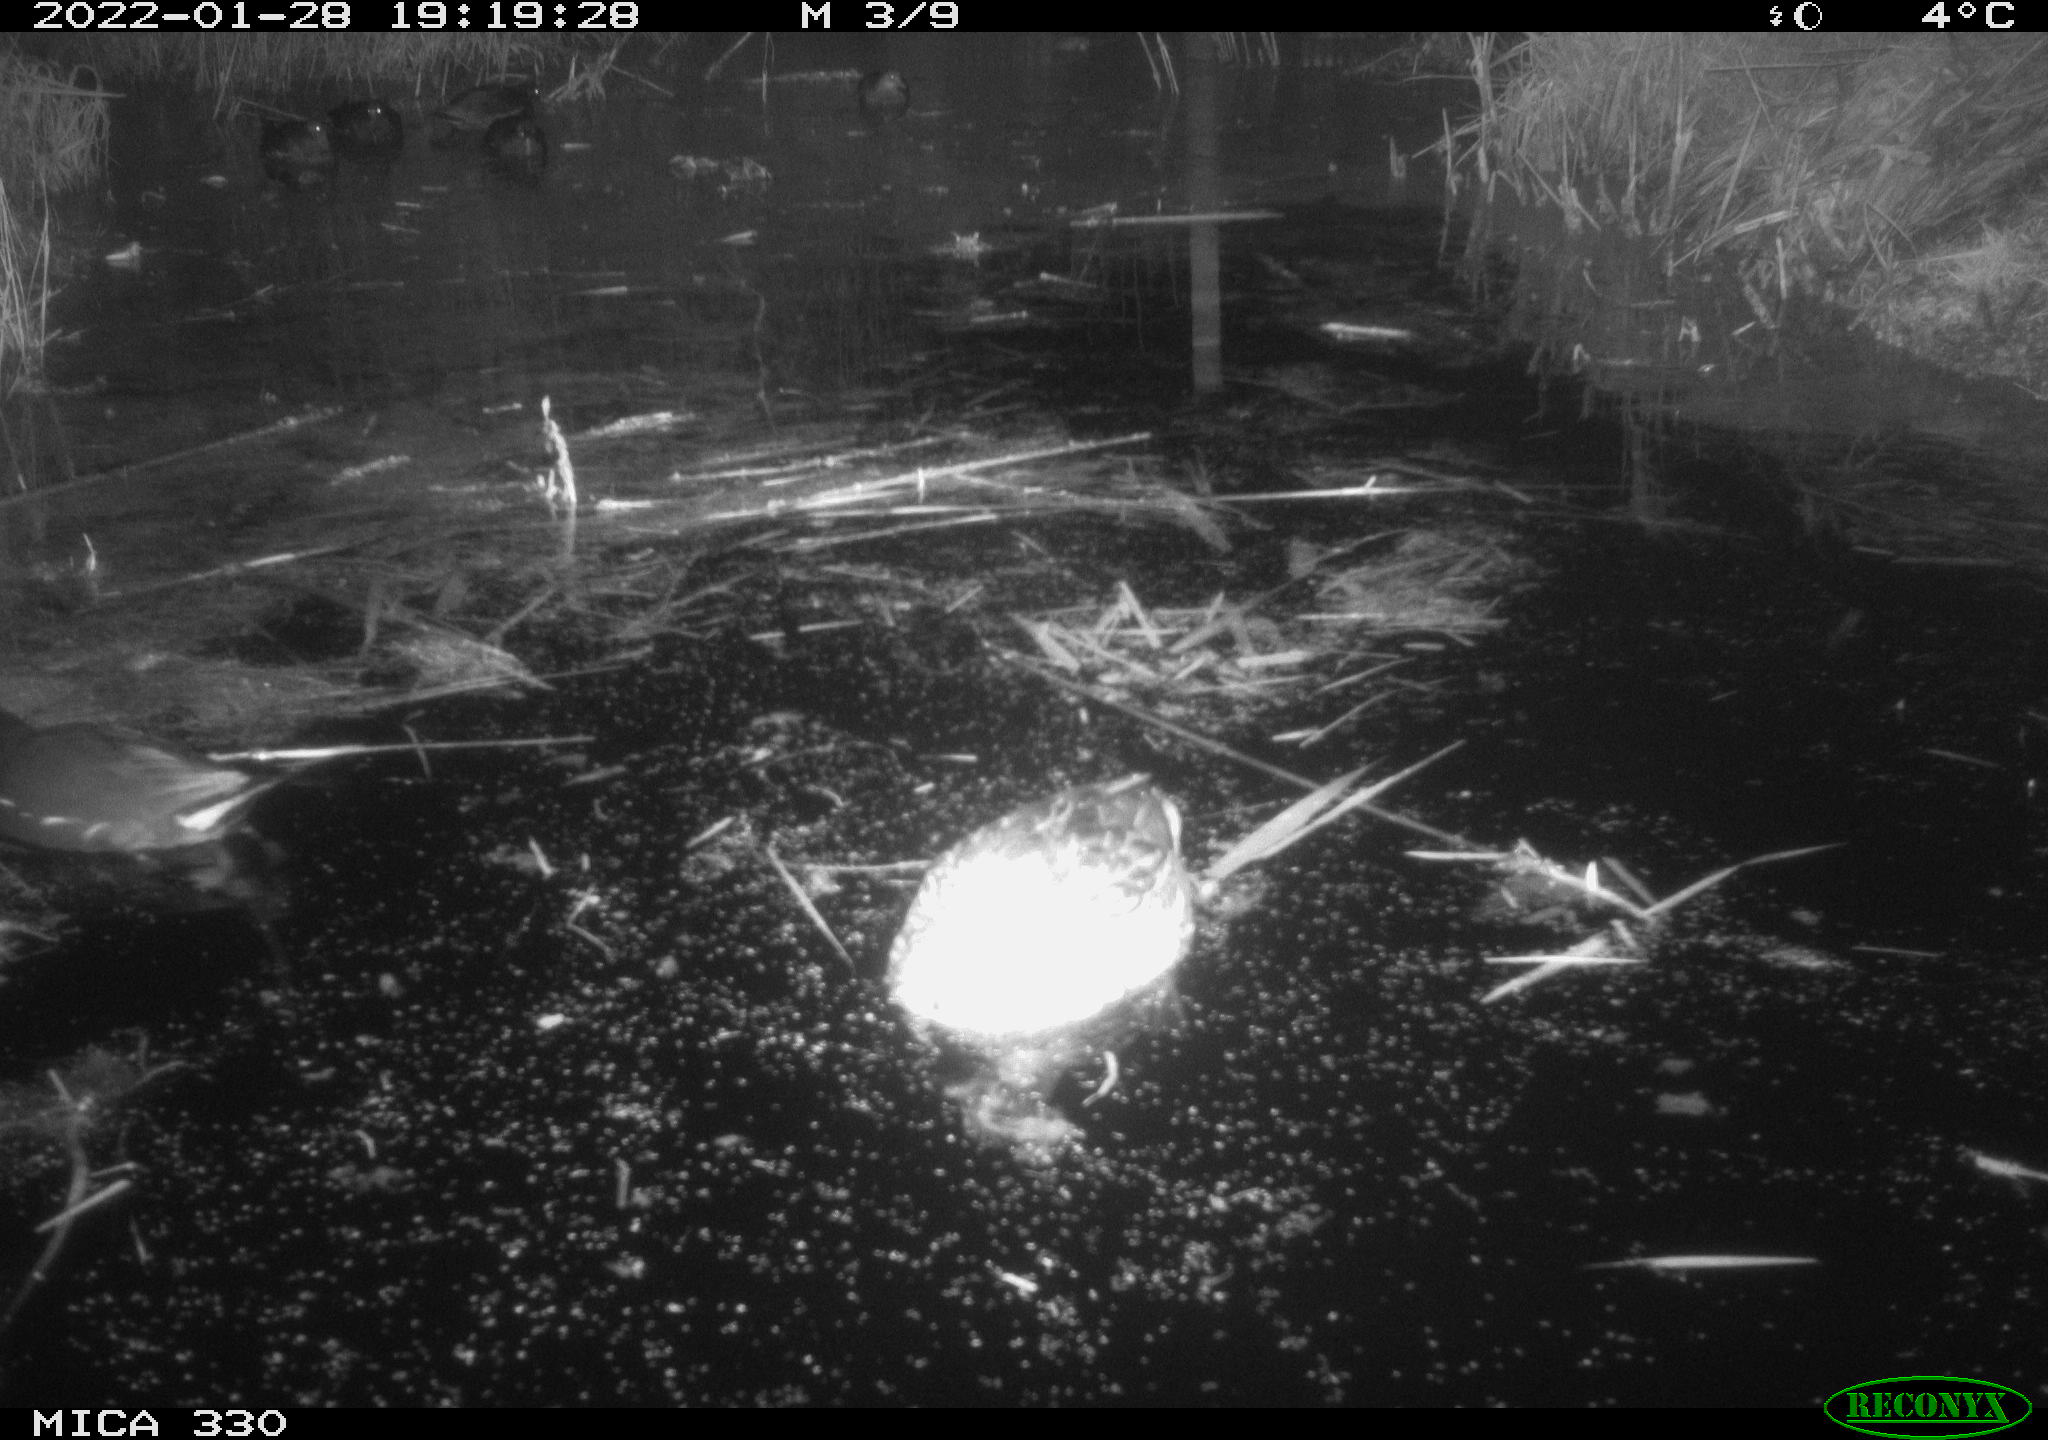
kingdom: Animalia
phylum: Chordata
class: Aves
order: Anseriformes
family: Anatidae
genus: Anas
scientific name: Anas platyrhynchos
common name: Mallard
